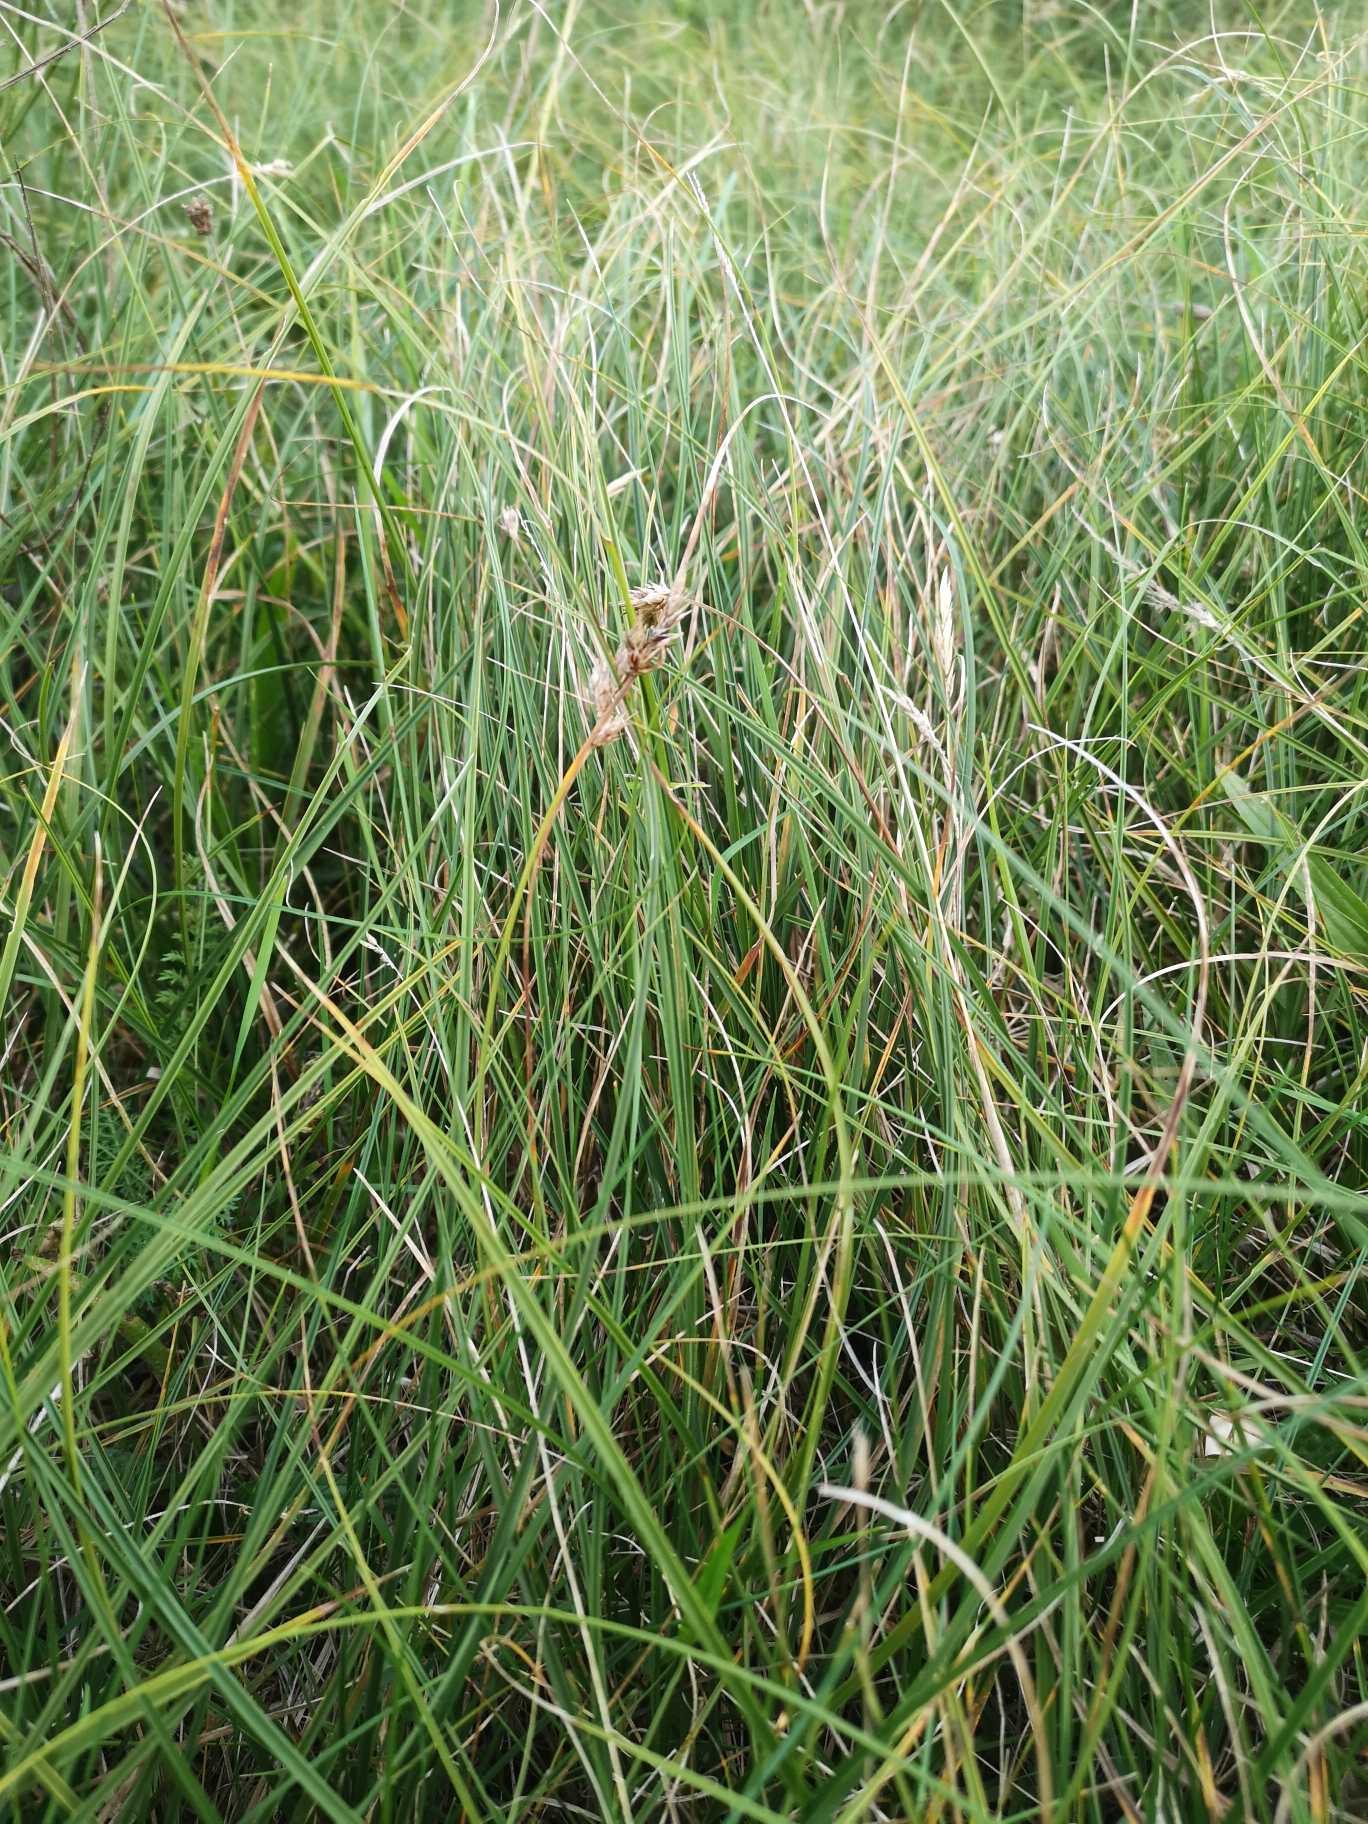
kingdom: Plantae
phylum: Tracheophyta
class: Liliopsida
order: Poales
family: Cyperaceae
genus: Carex
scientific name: Carex arenaria
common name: Sand-star
